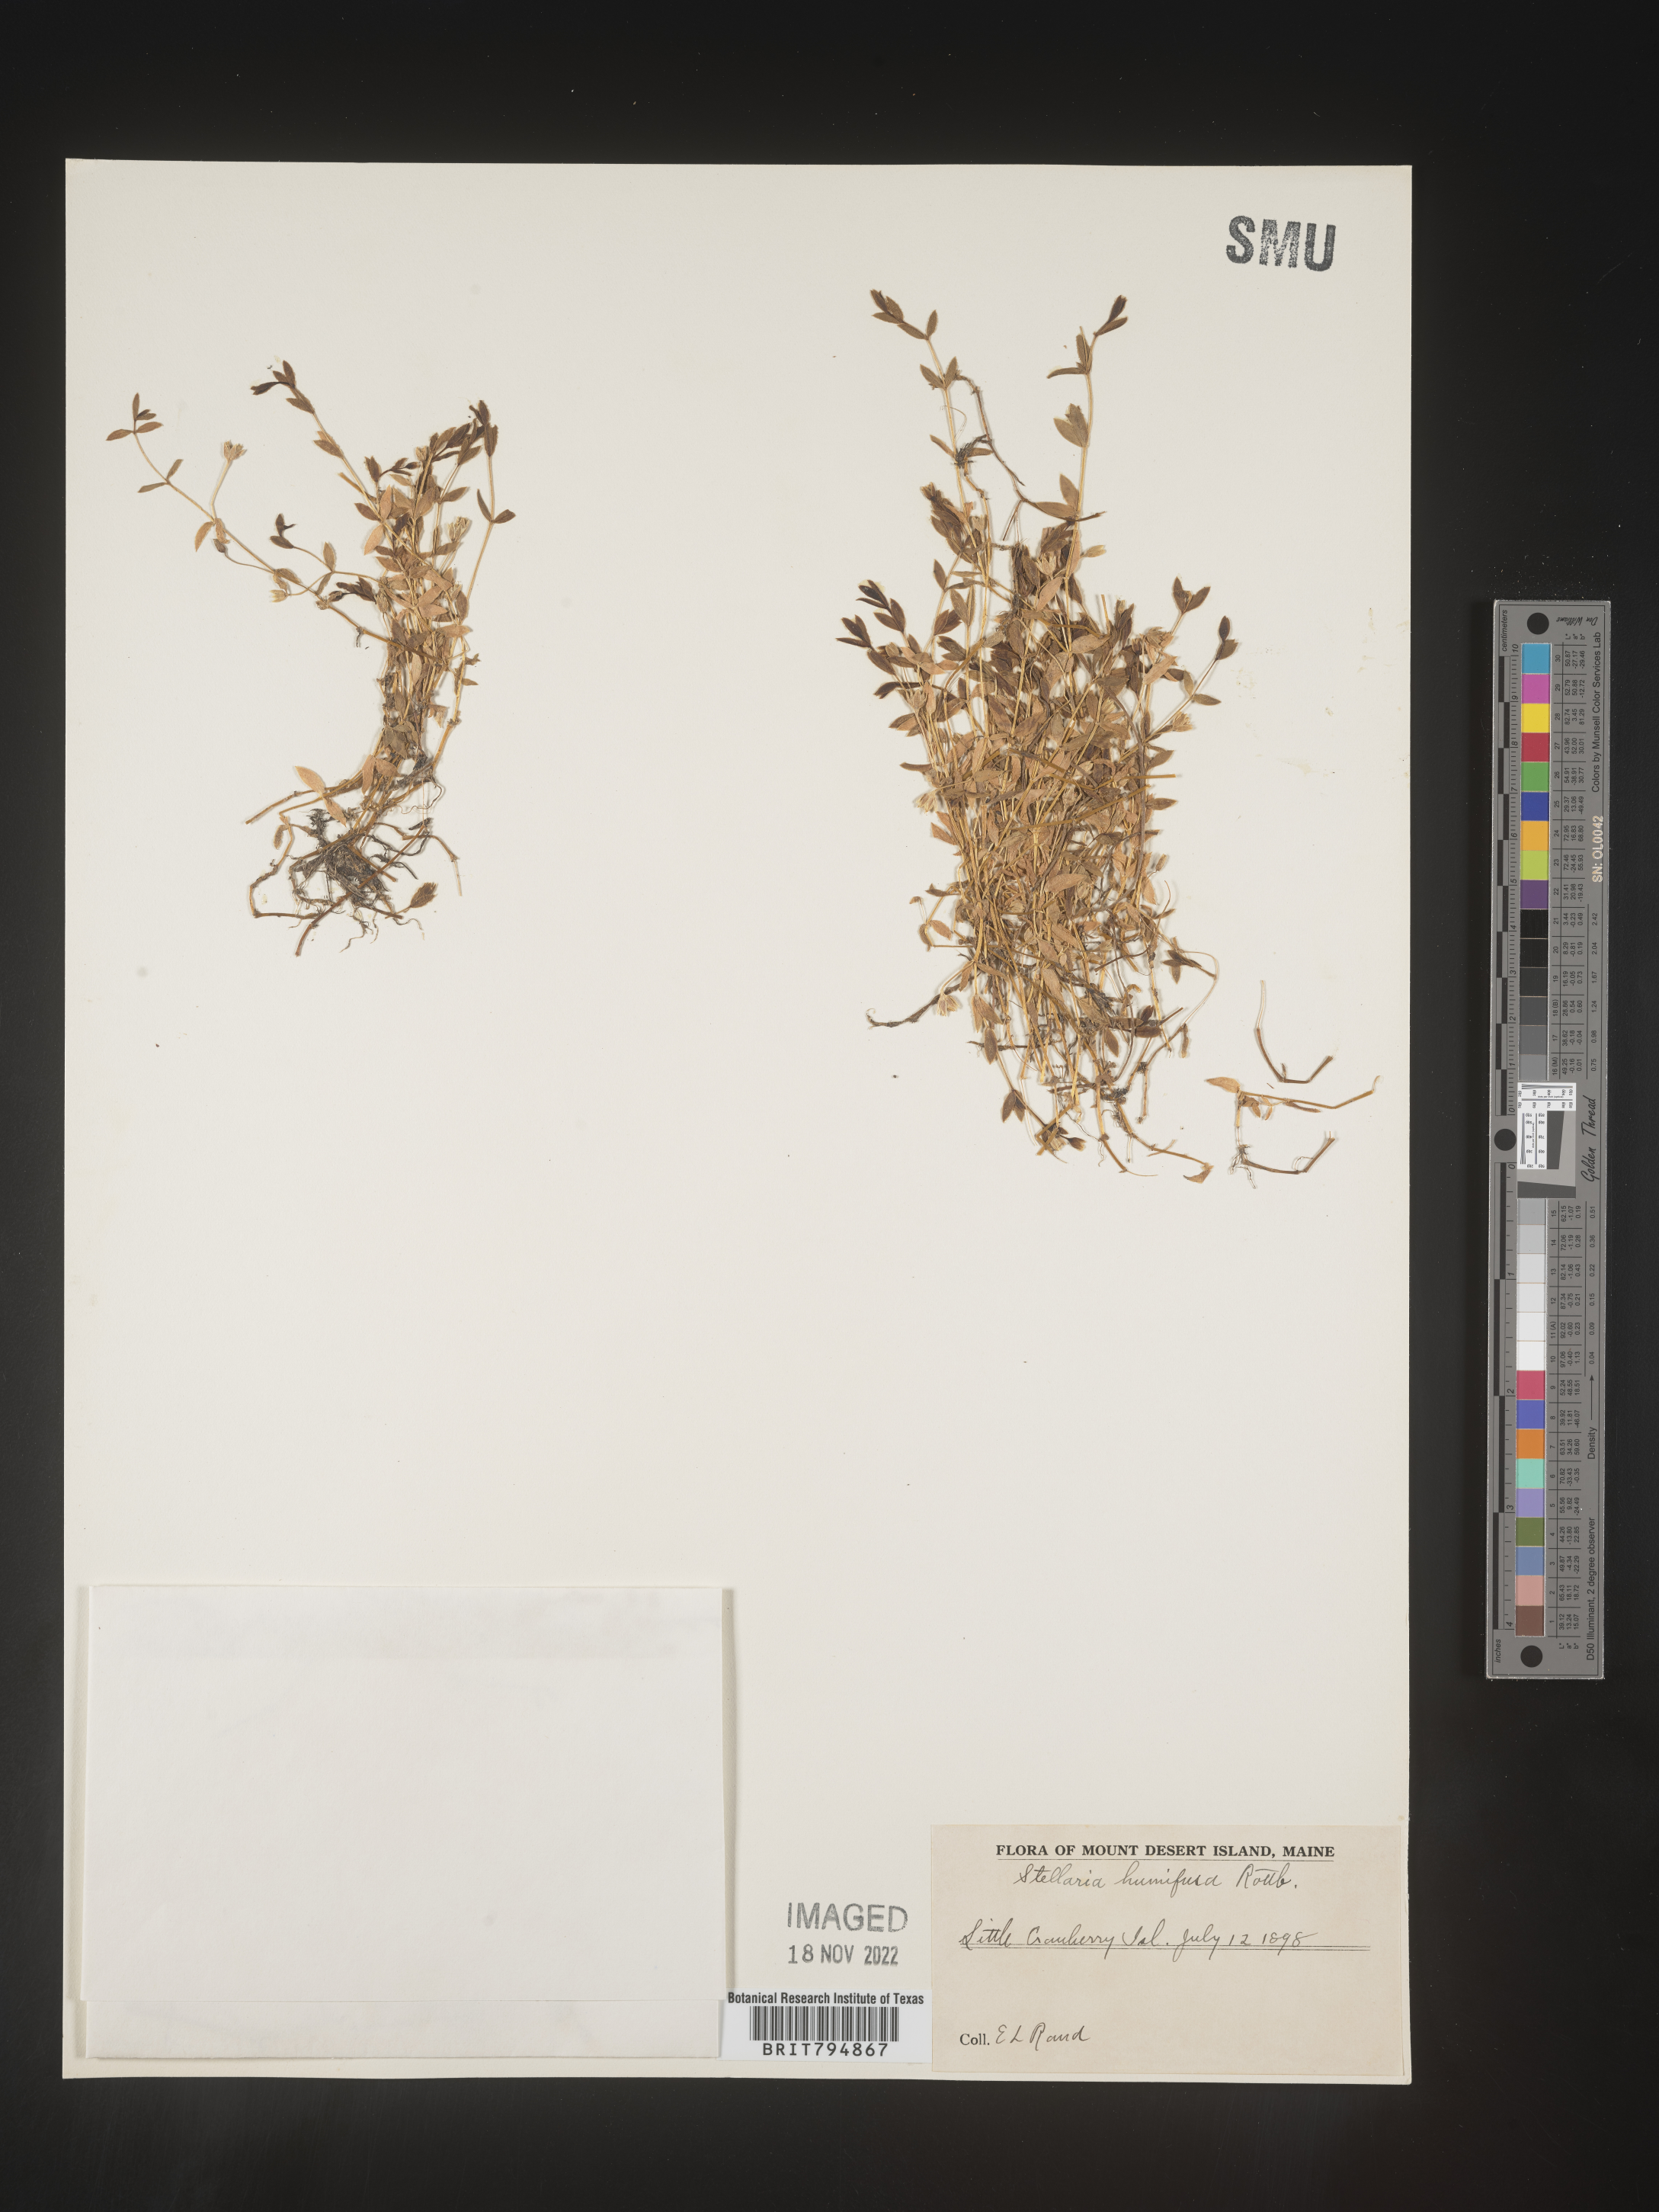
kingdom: Plantae
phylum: Tracheophyta
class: Magnoliopsida
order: Caryophyllales
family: Caryophyllaceae
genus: Stellaria
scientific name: Stellaria humifusa
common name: Creeping starwort
